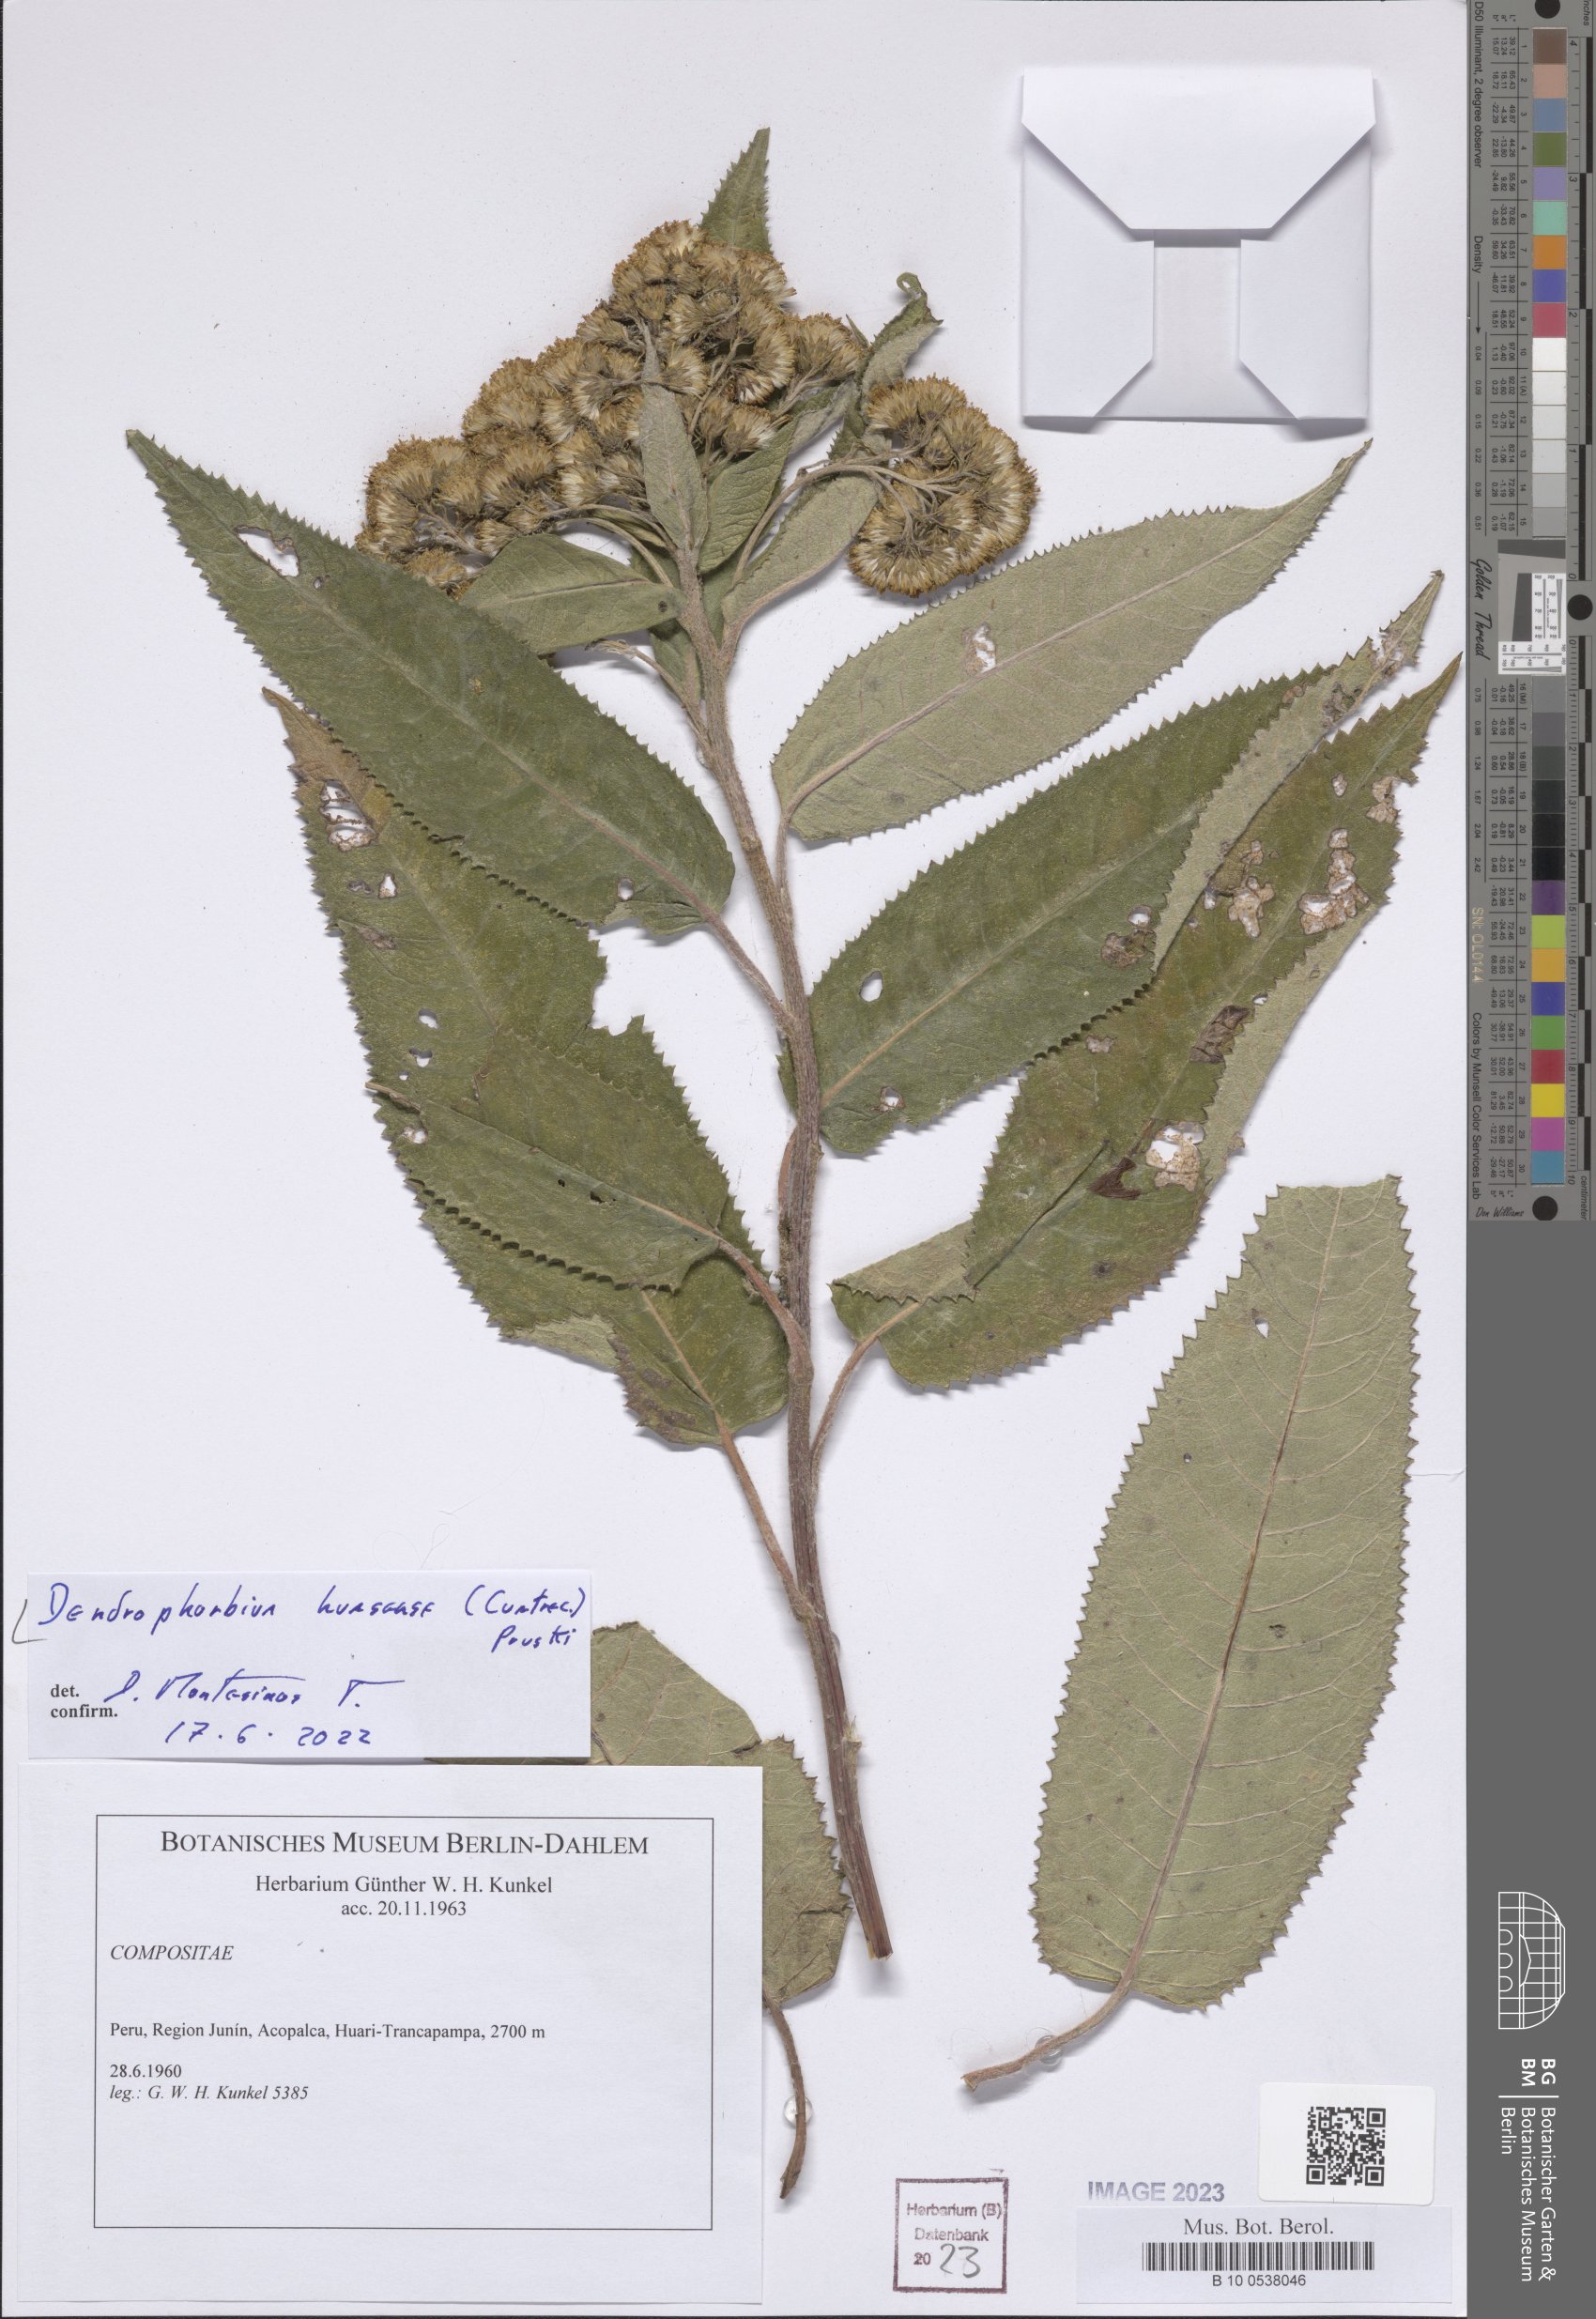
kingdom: Plantae
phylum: Tracheophyta
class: Magnoliopsida
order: Asterales
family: Asteraceae
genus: Dendrophorbium
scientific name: Dendrophorbium huasense
